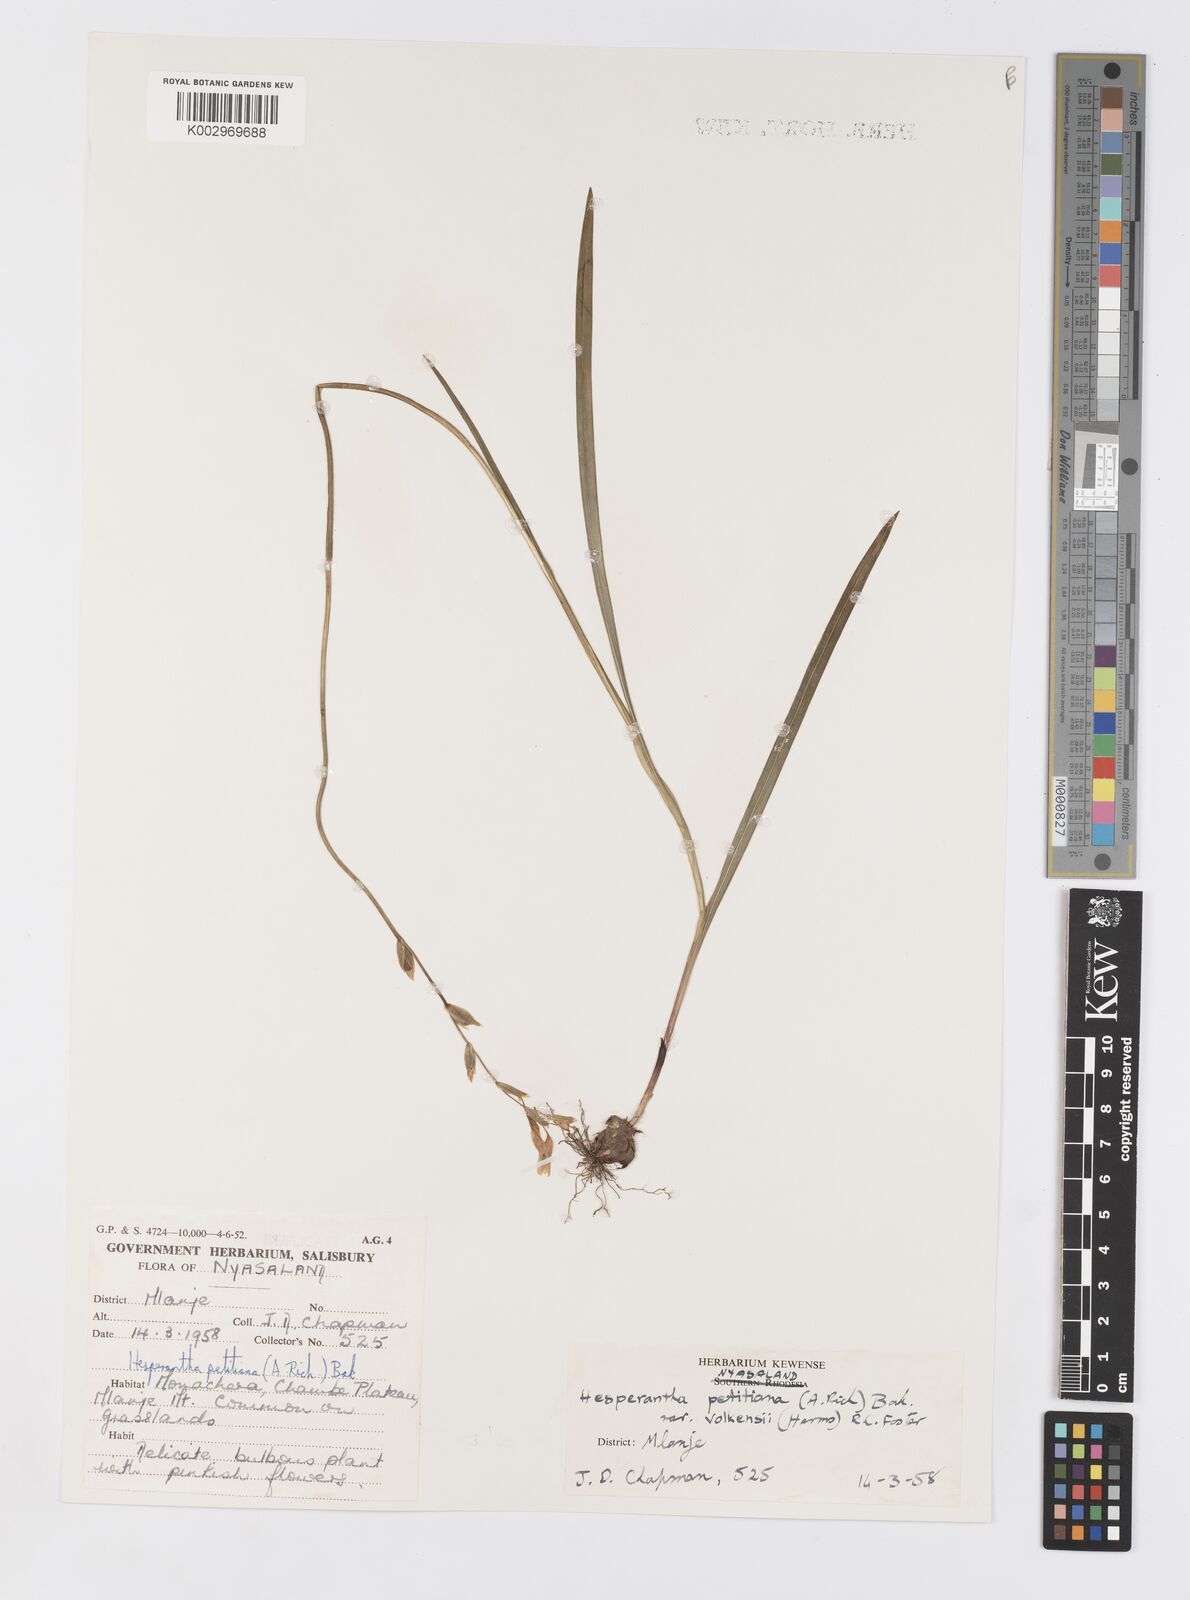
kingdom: Plantae
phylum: Tracheophyta
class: Liliopsida
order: Asparagales
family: Iridaceae
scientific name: Iridaceae
